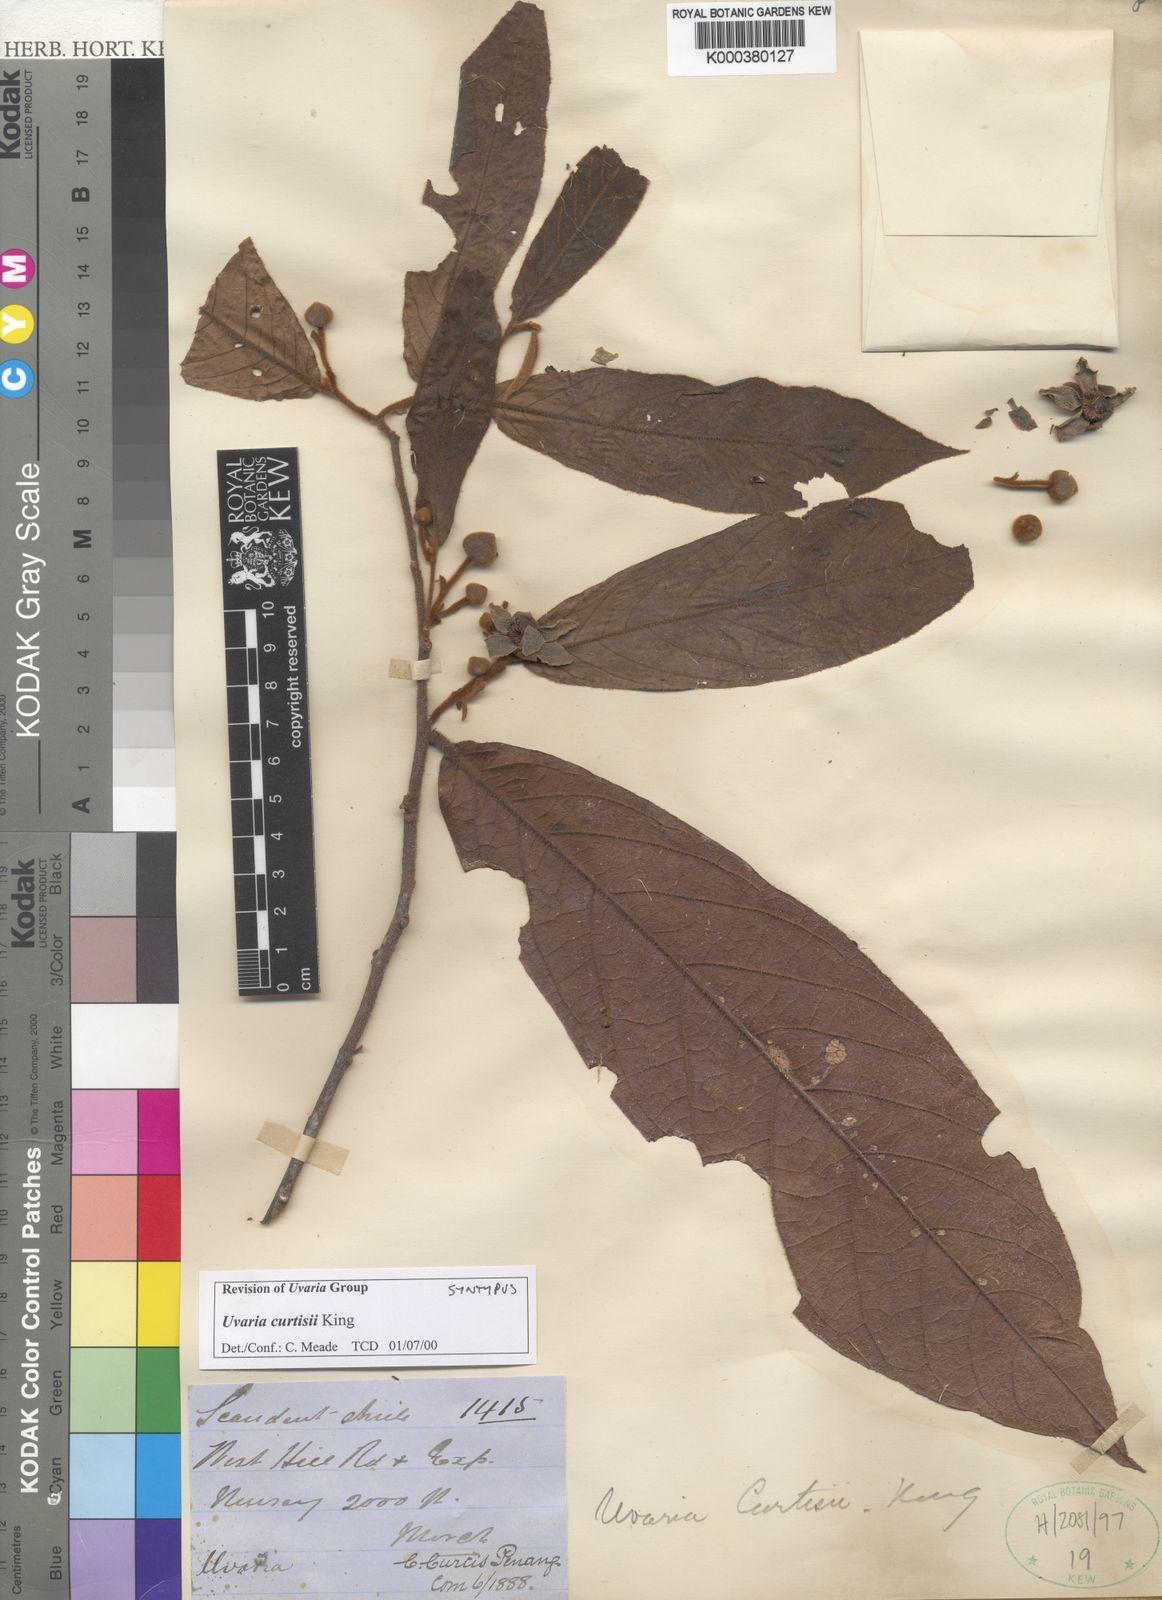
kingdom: Plantae
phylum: Tracheophyta
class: Magnoliopsida
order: Magnoliales
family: Annonaceae
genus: Uvaria
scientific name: Uvaria curtisii
